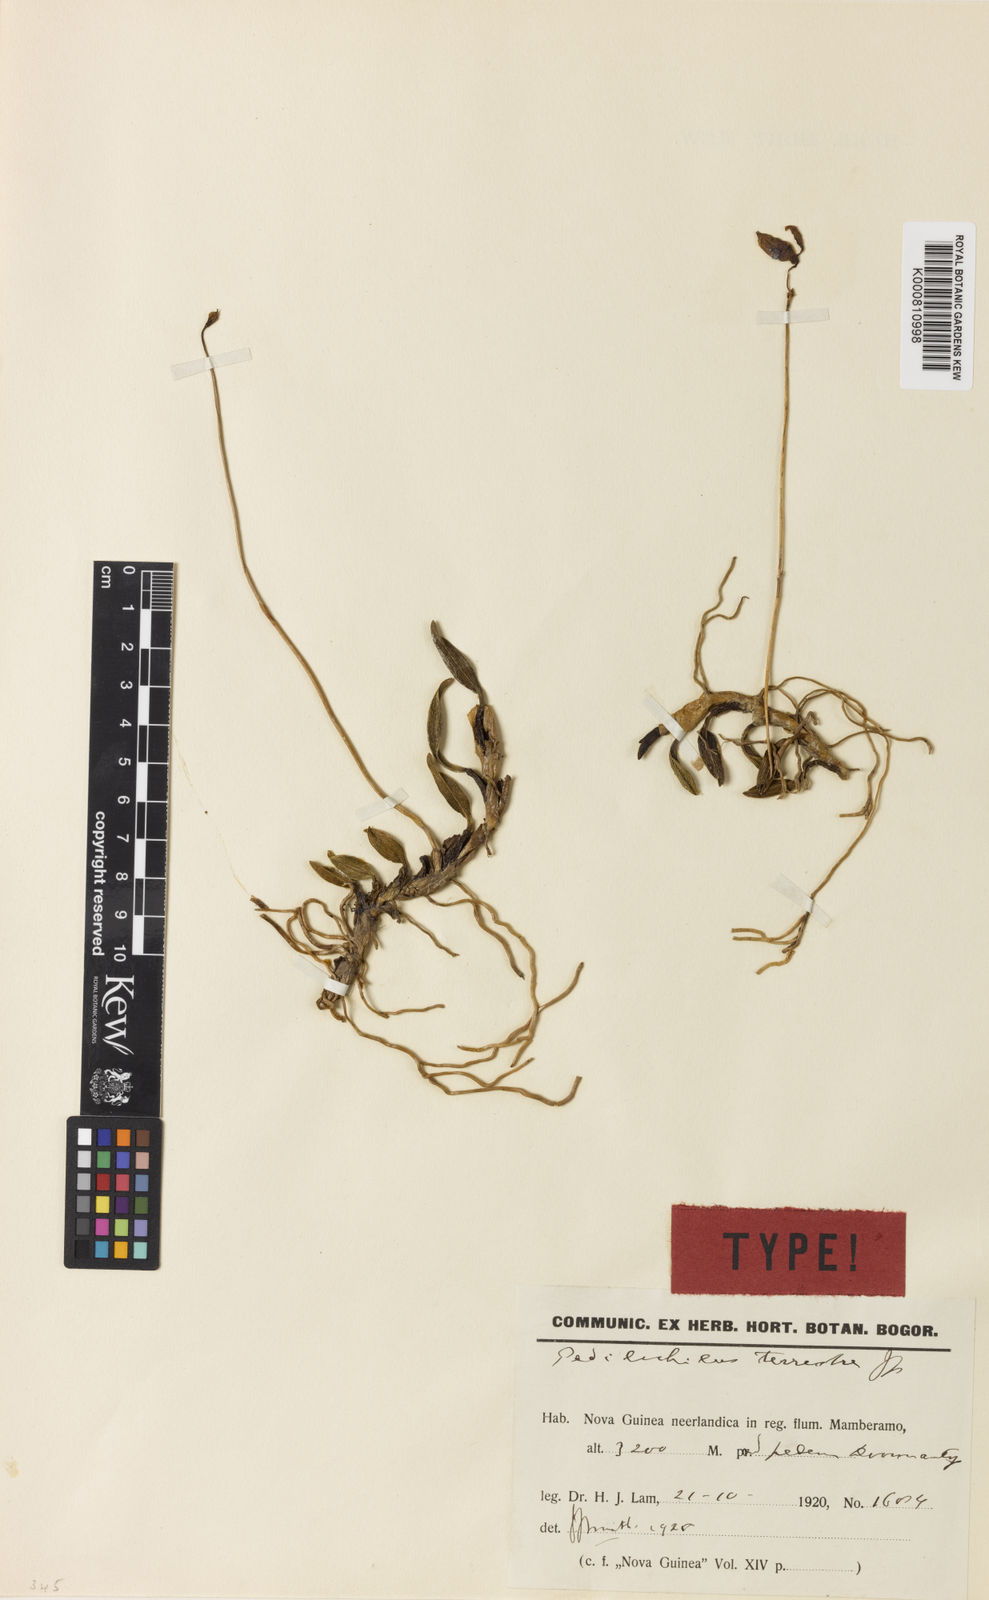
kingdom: Plantae
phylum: Tracheophyta
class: Liliopsida
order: Asparagales
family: Orchidaceae
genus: Bulbophyllum
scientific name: Bulbophyllum terrestre
